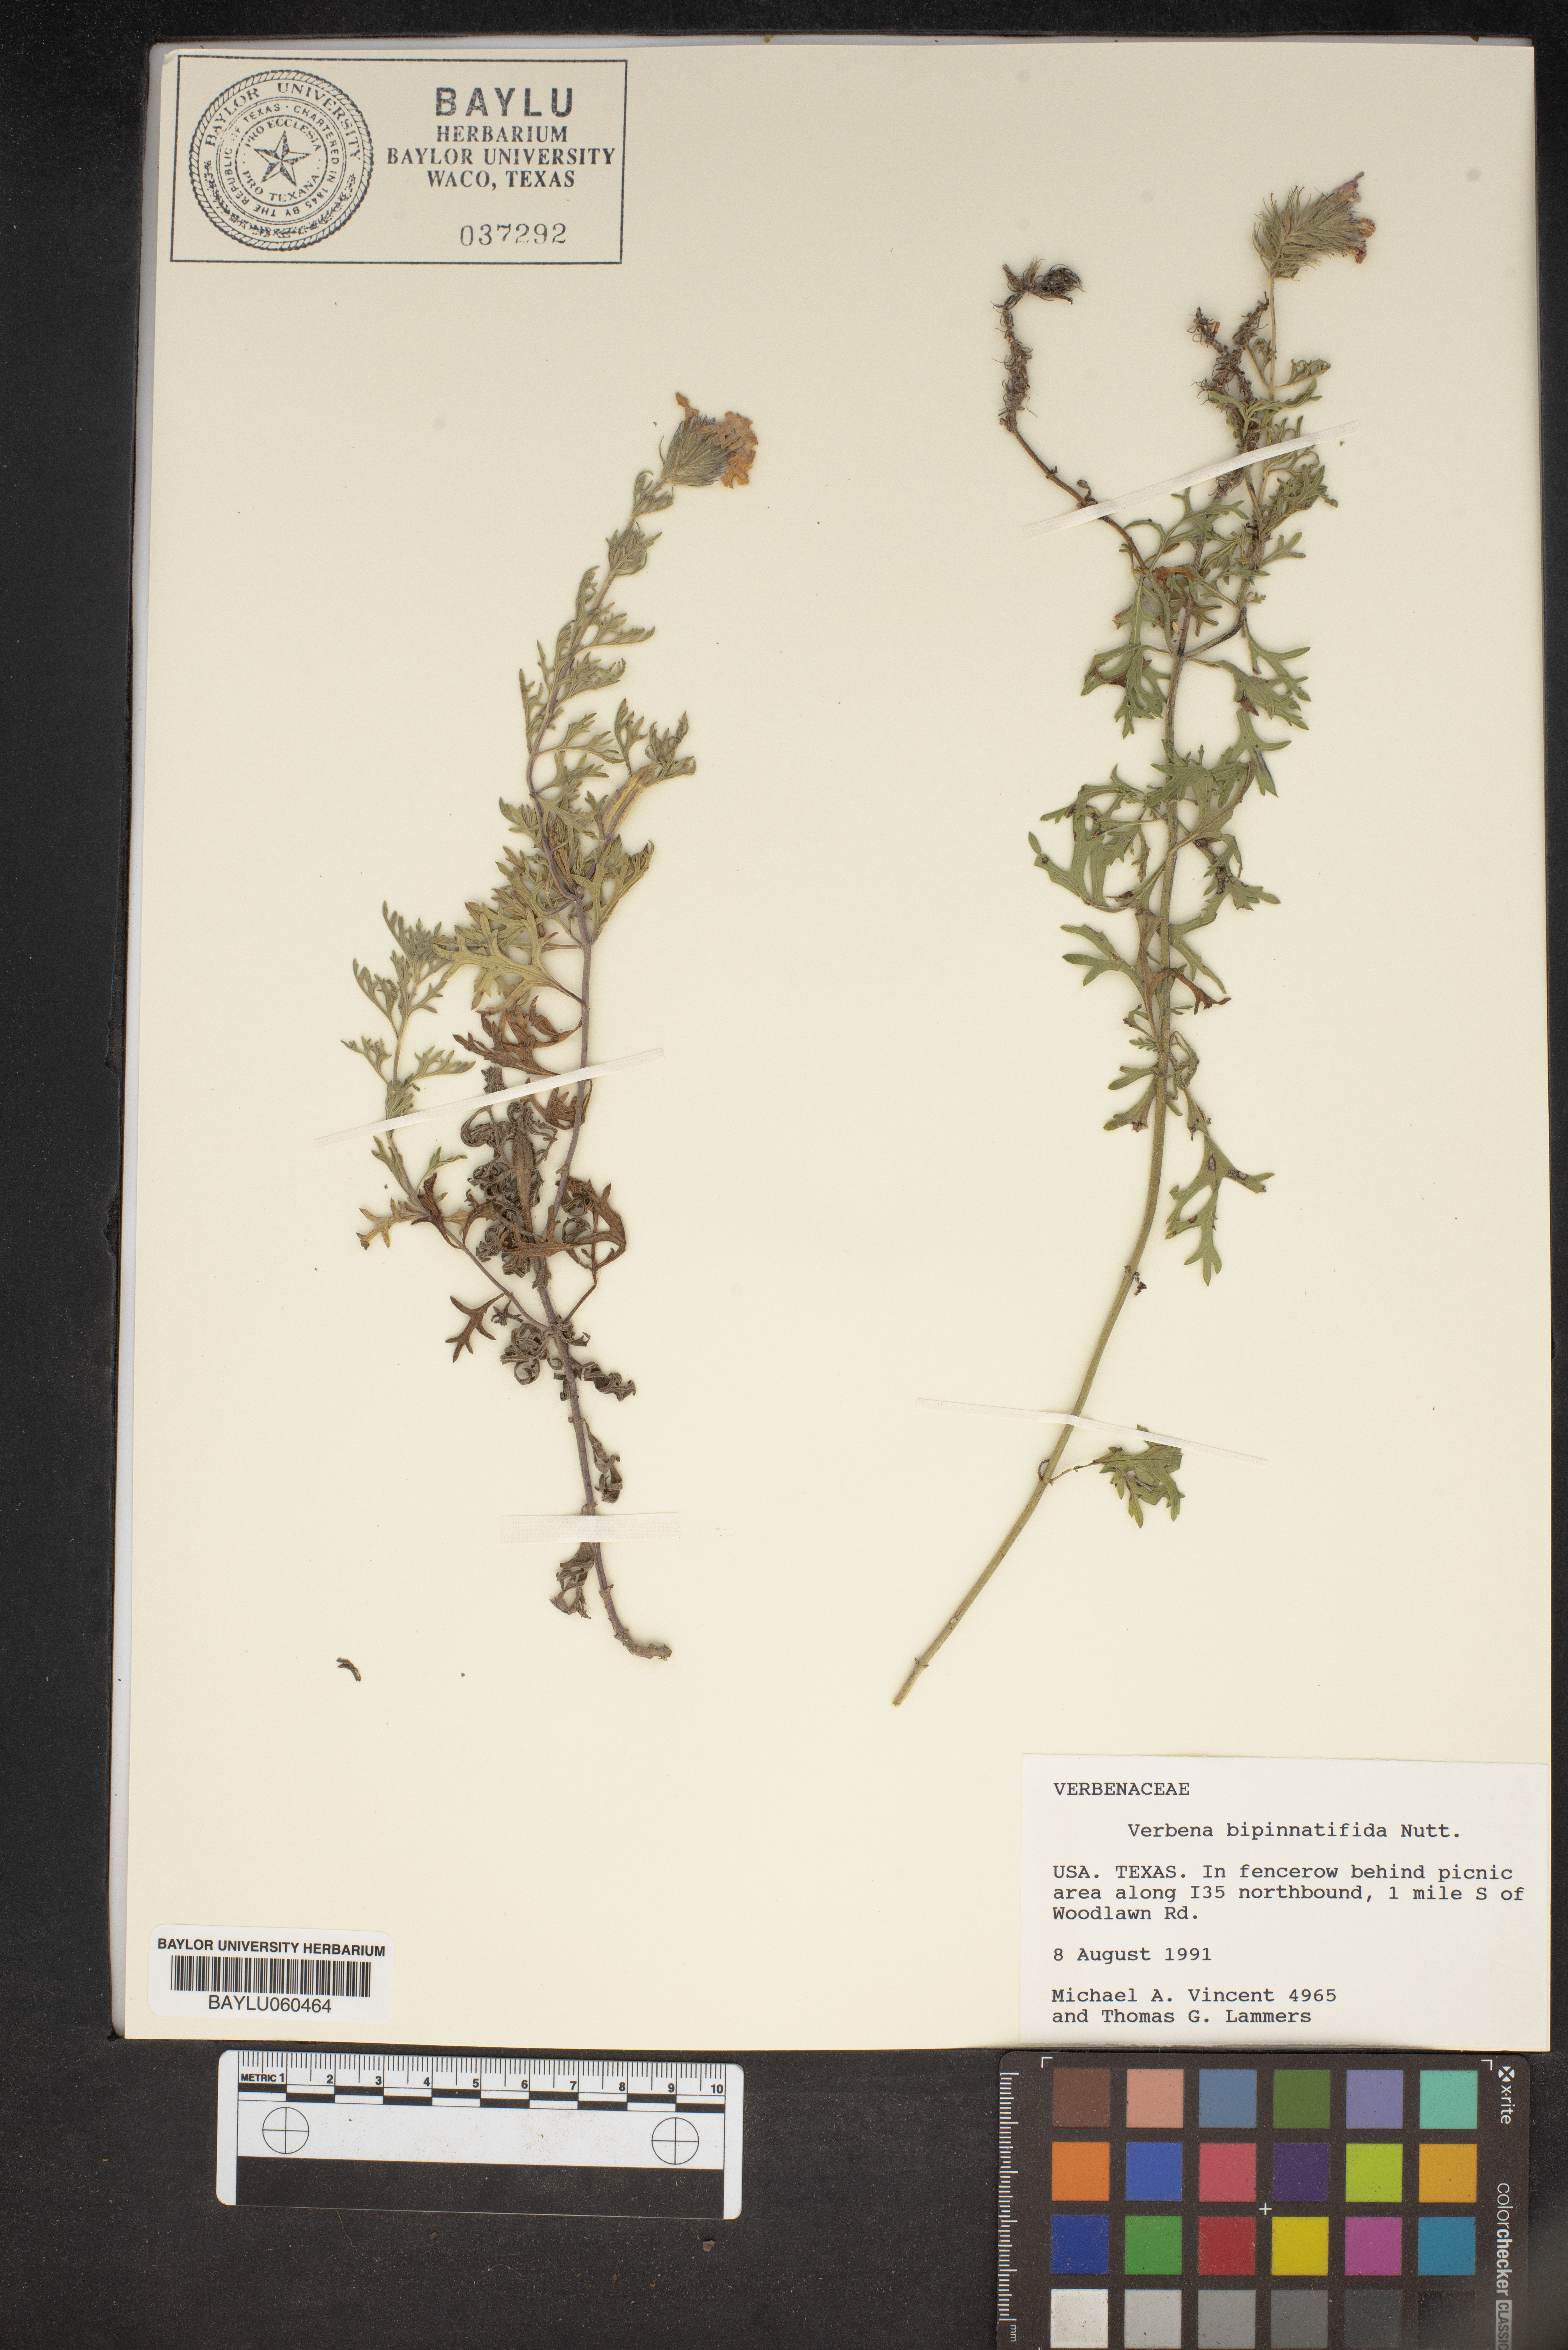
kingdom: Plantae
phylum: Tracheophyta
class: Magnoliopsida
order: Lamiales
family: Verbenaceae
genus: Verbena
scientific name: Verbena bipinnatifida
